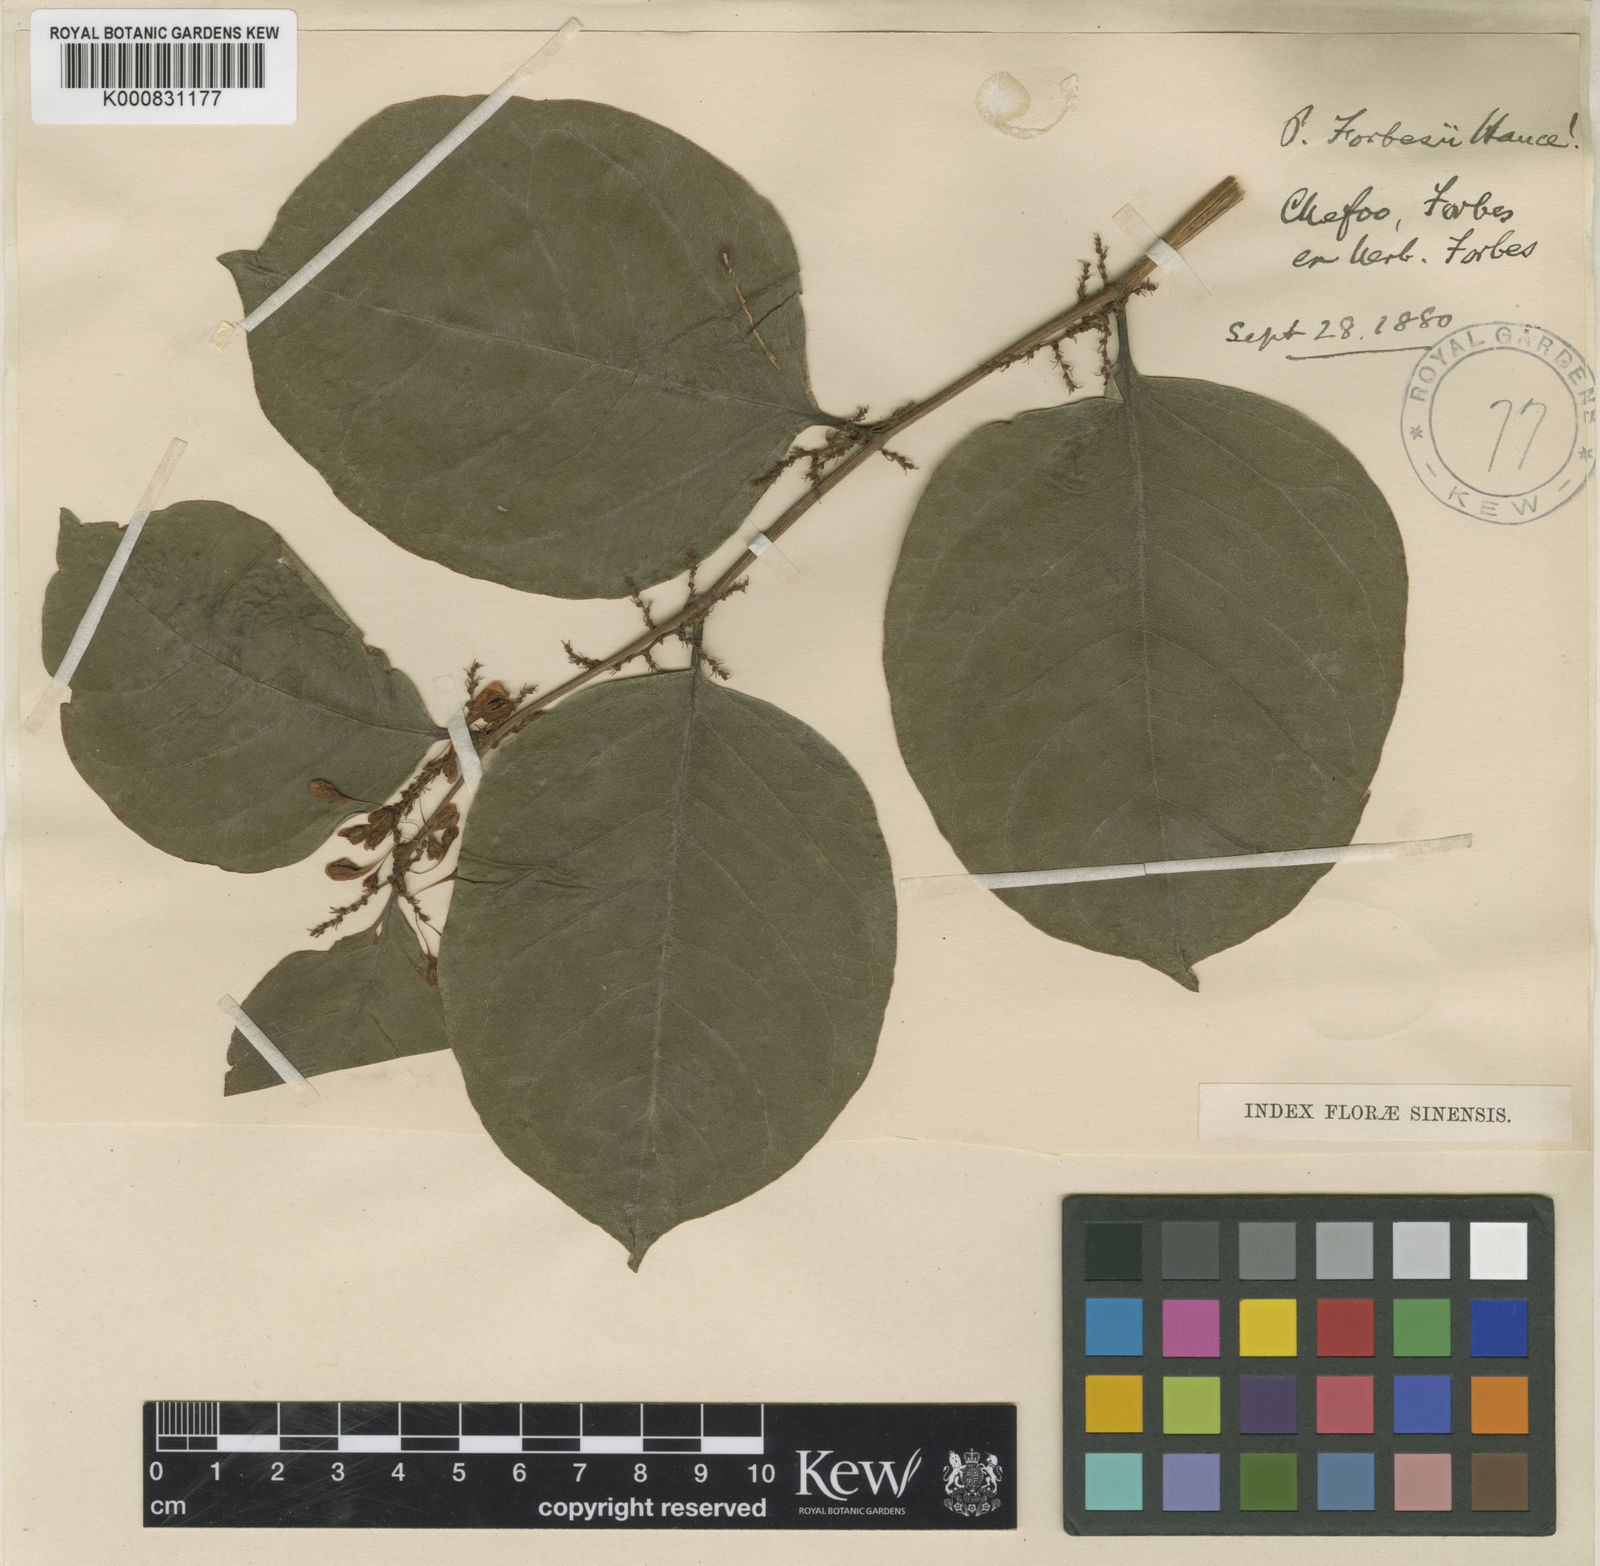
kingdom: Plantae
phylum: Tracheophyta
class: Magnoliopsida
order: Caryophyllales
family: Polygonaceae
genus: Fallopia
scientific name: Fallopia
